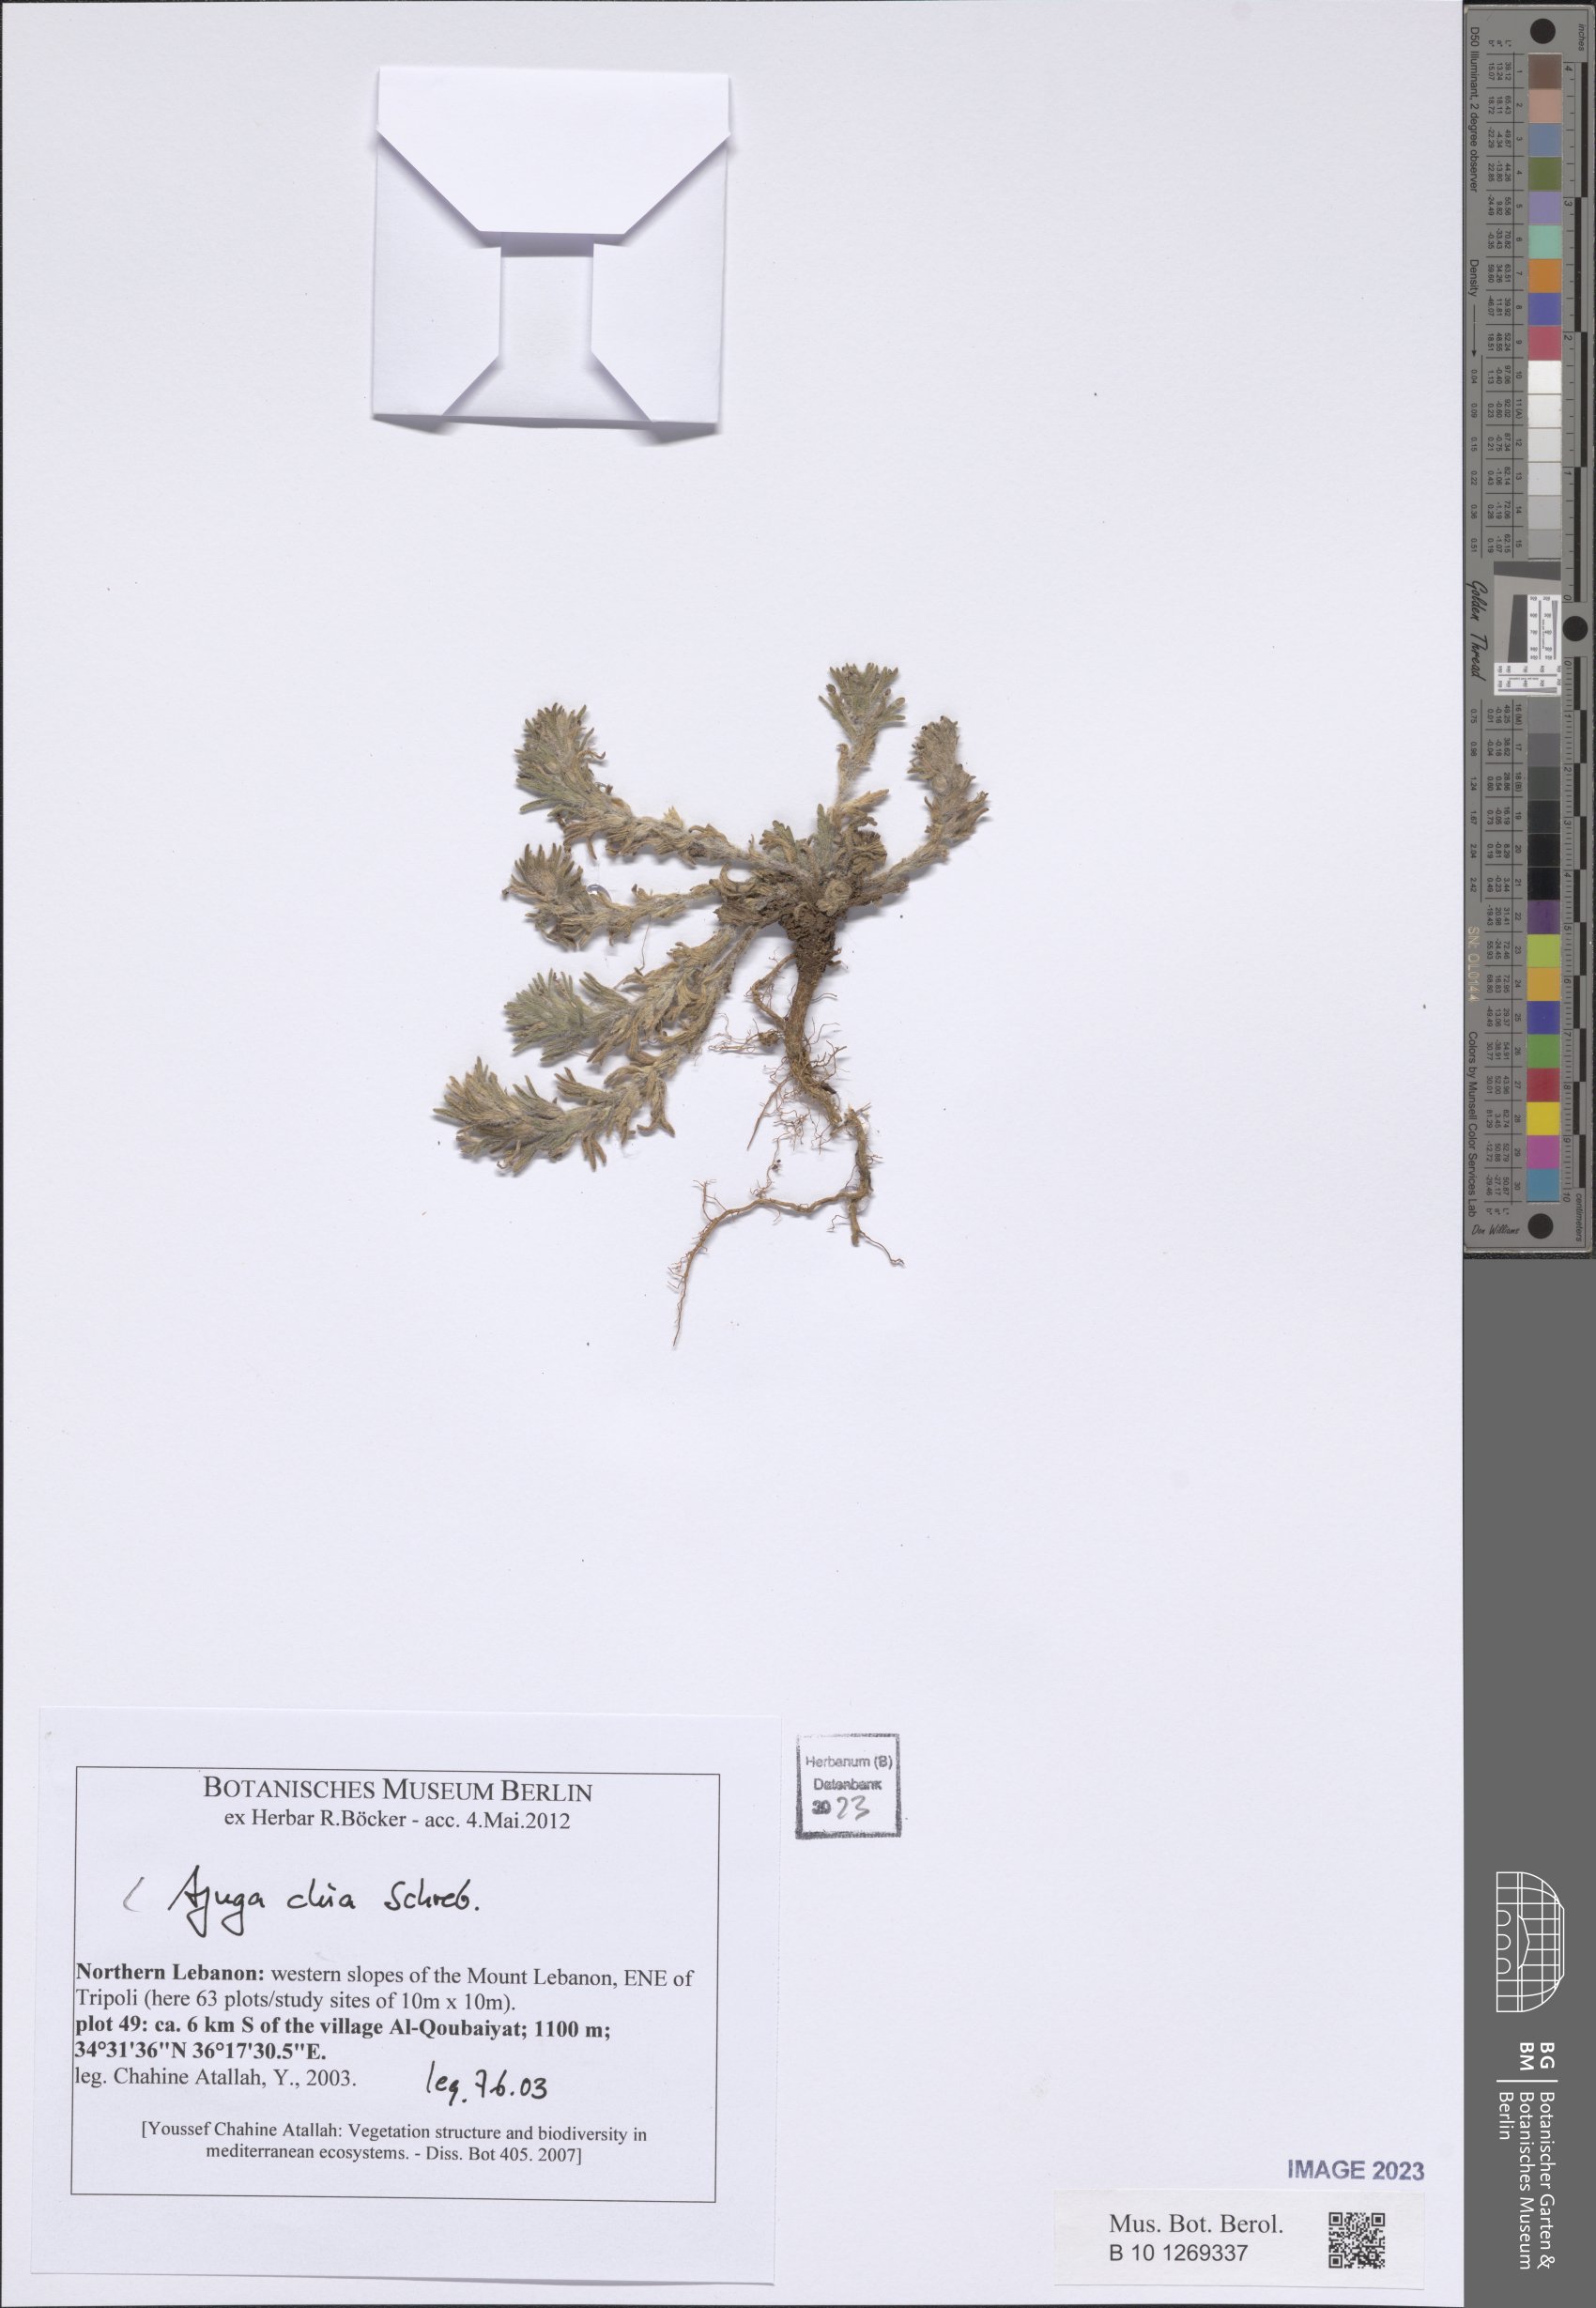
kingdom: Plantae
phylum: Tracheophyta
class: Magnoliopsida
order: Lamiales
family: Lamiaceae
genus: Ajuga
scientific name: Ajuga chamaepitys
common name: Ground-pine
